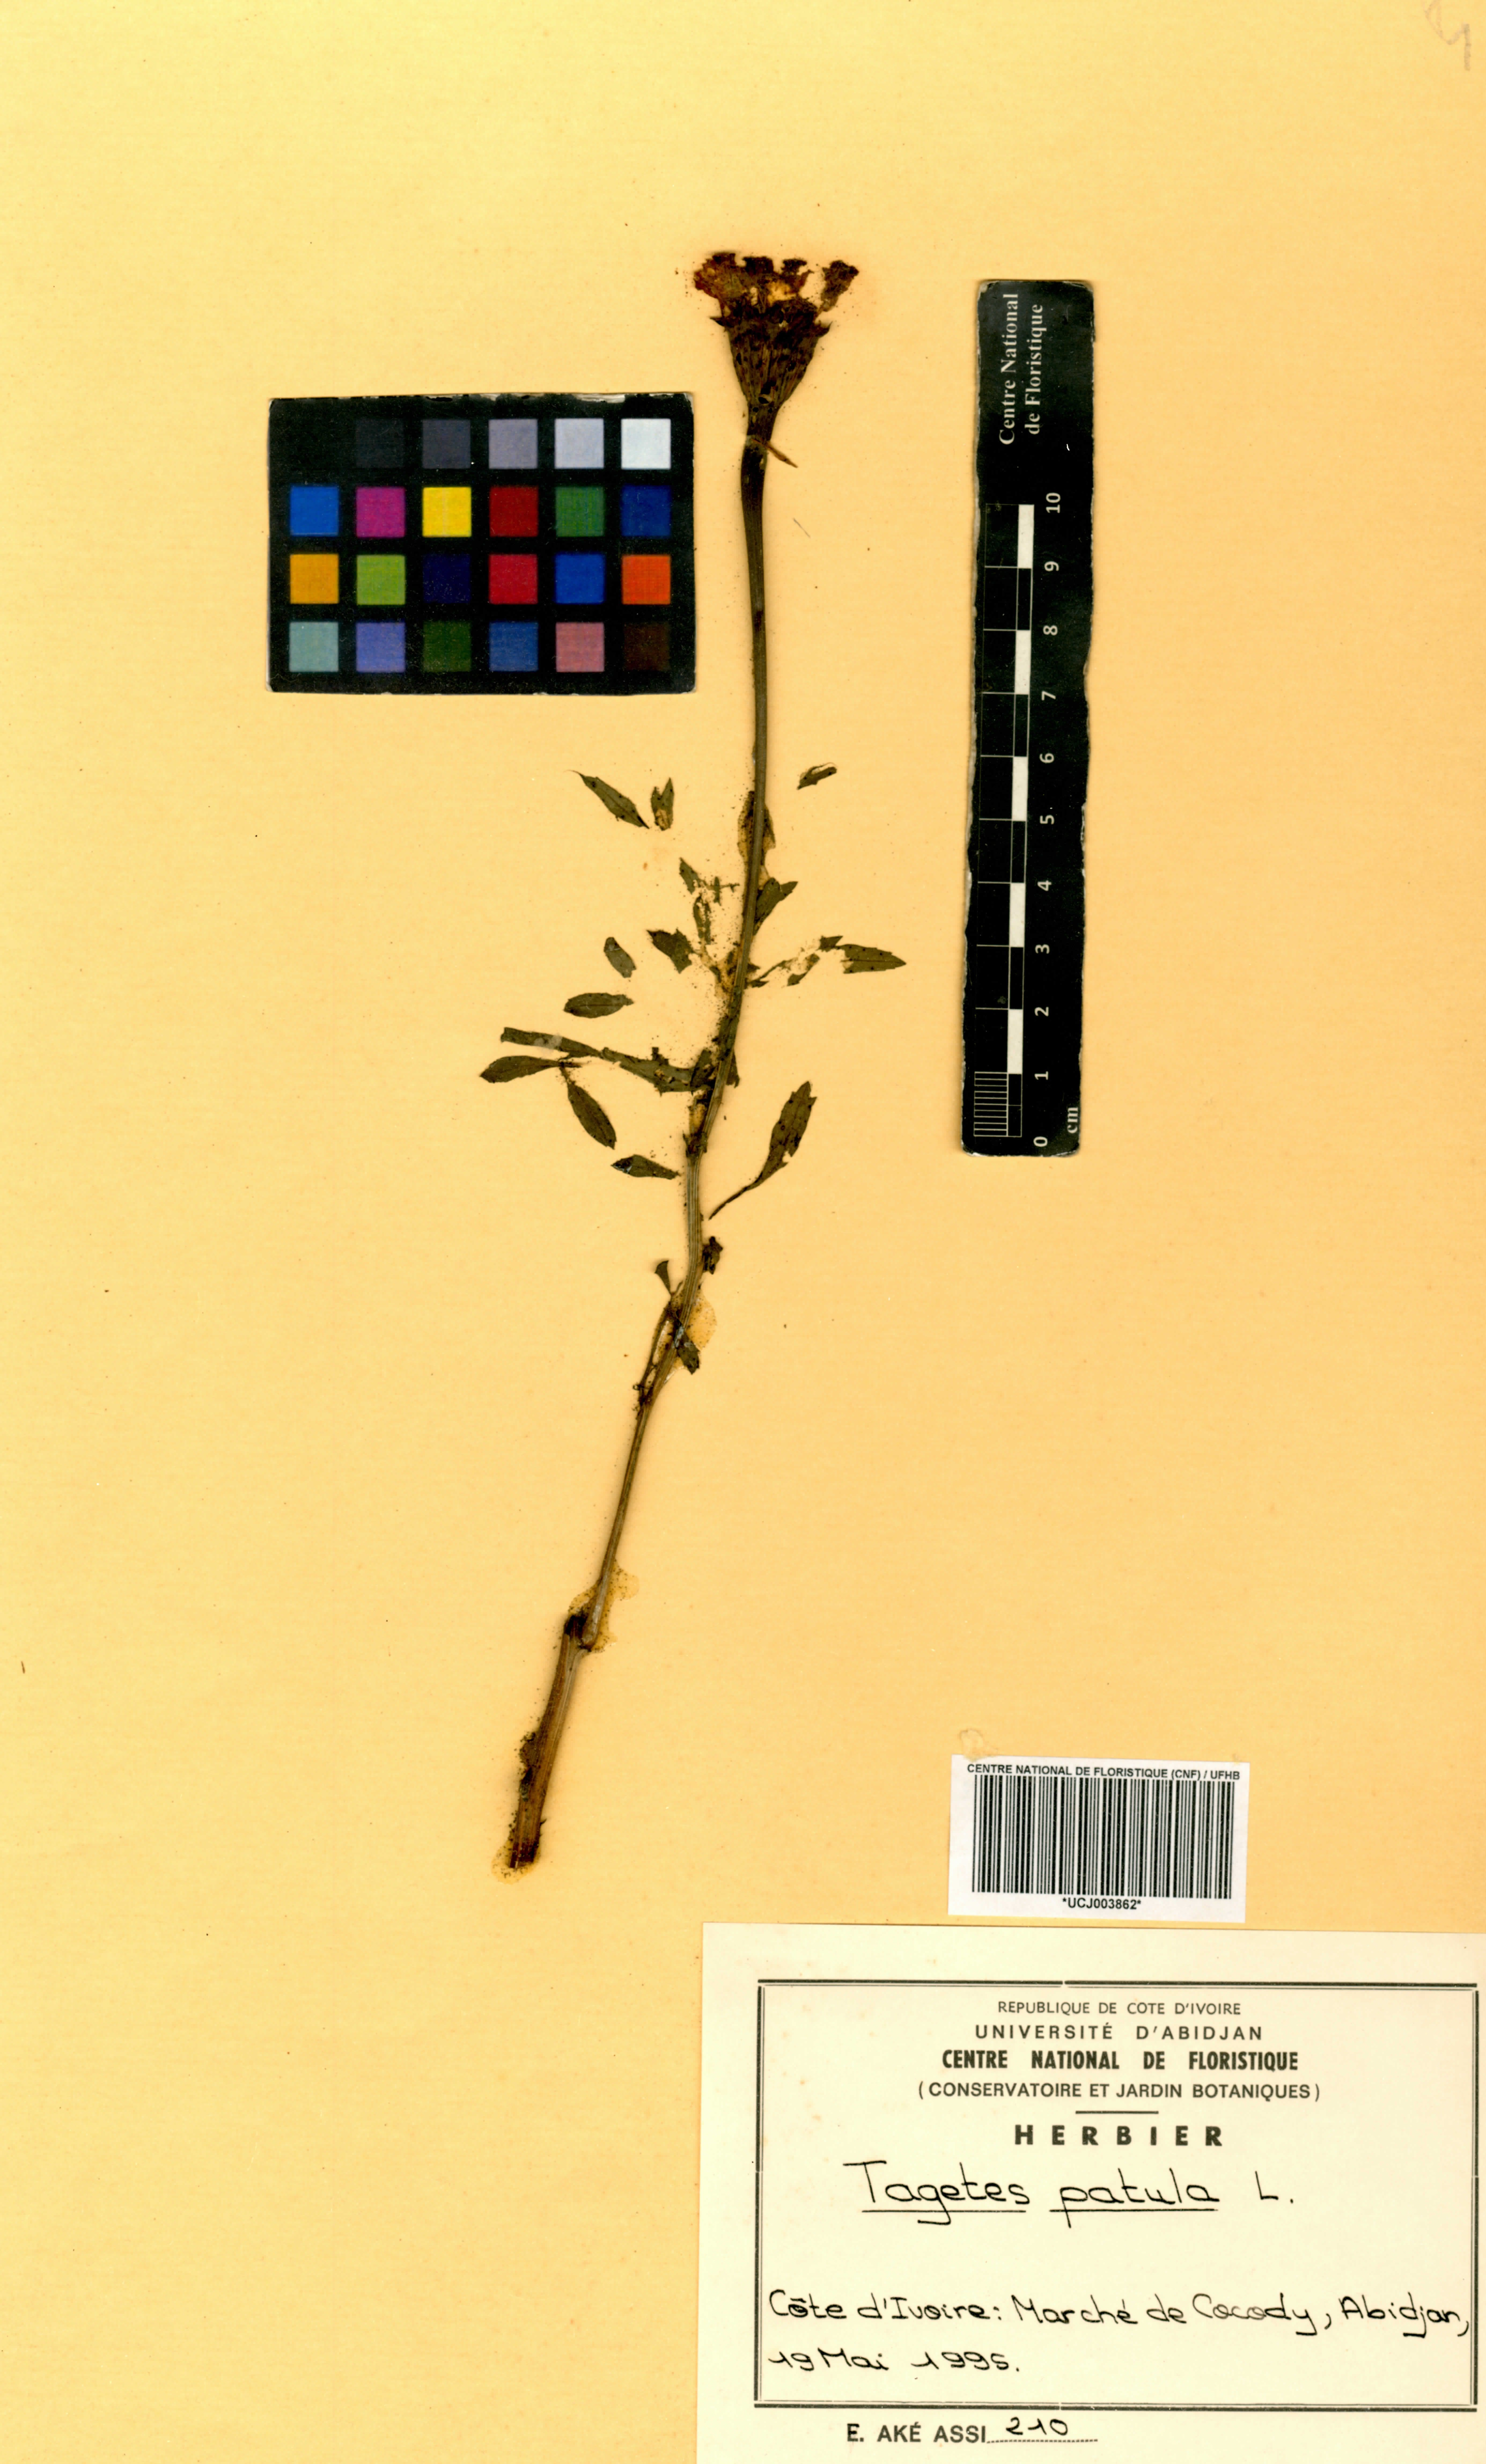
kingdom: Plantae
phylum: Tracheophyta
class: Magnoliopsida
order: Asterales
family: Asteraceae
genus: Tagetes
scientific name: Tagetes erecta
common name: African marigold
